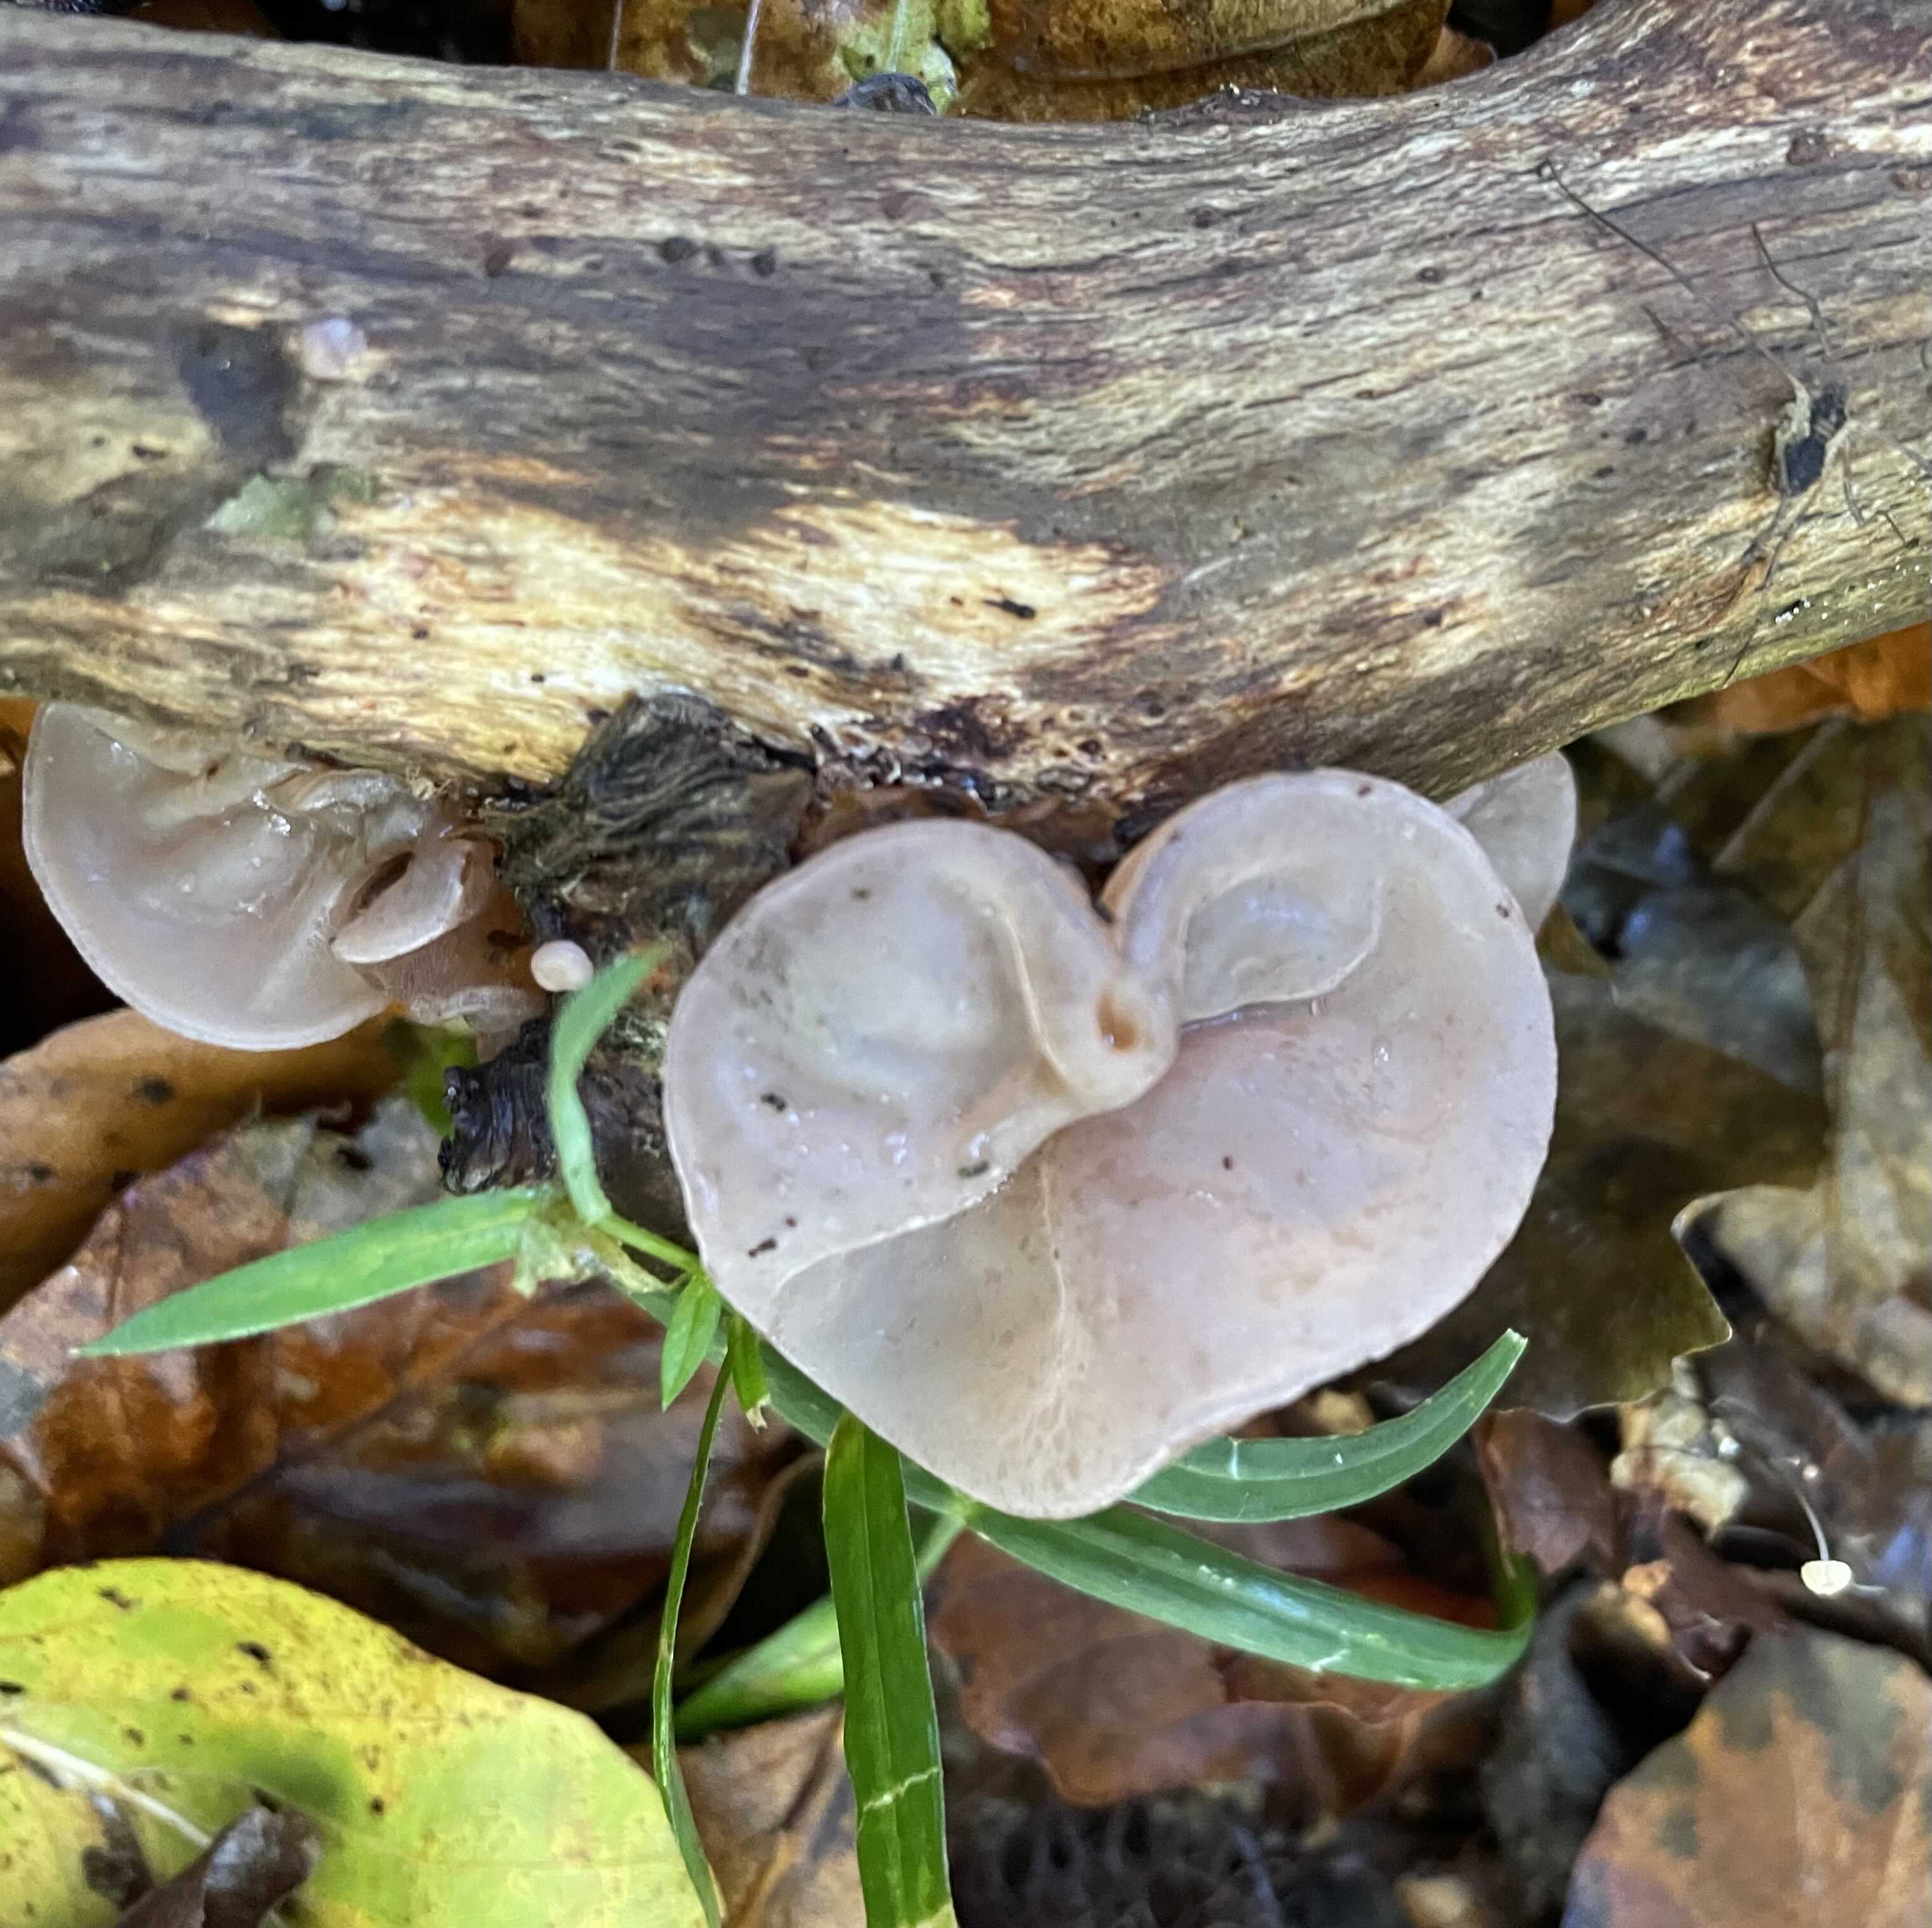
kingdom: Fungi
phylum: Basidiomycota
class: Agaricomycetes
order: Auriculariales
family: Auriculariaceae
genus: Auricularia
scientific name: Auricularia auricula-judae
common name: almindelig judasøre
